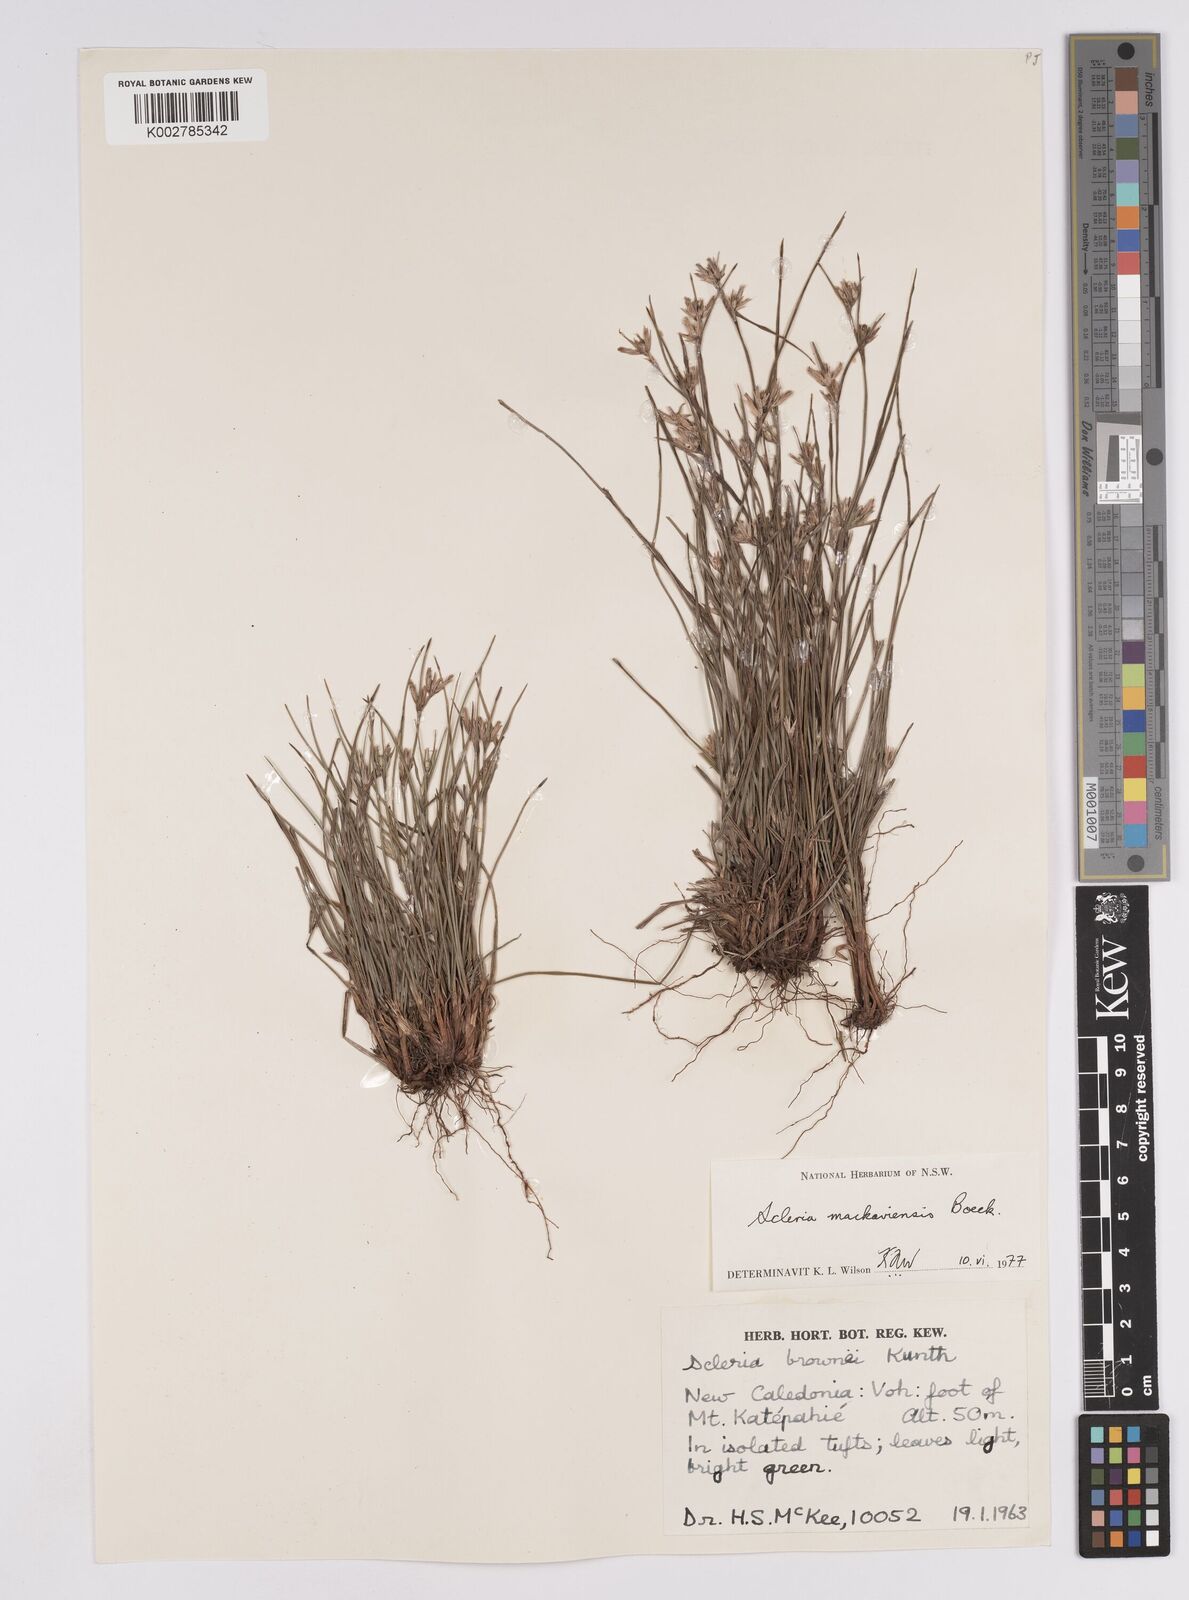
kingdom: Plantae
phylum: Tracheophyta
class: Liliopsida
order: Poales
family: Cyperaceae
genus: Scleria
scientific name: Scleria mackaviensis
